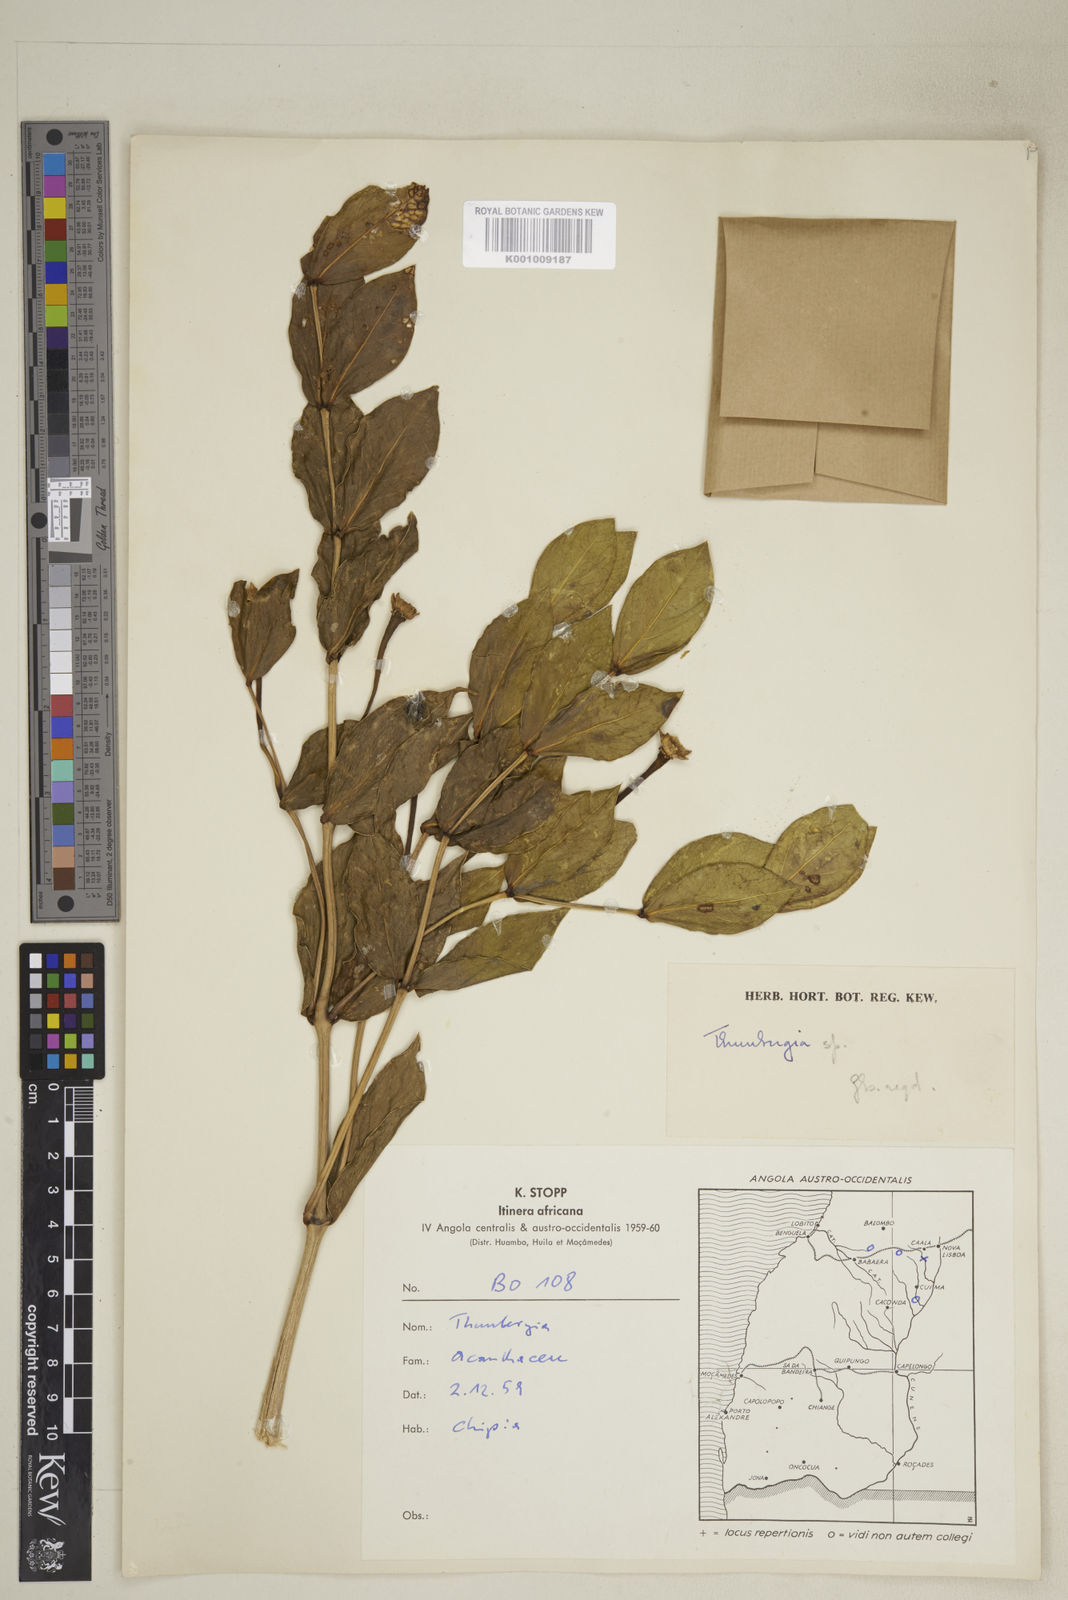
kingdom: Plantae
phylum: Tracheophyta
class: Magnoliopsida
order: Lamiales
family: Acanthaceae
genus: Thunbergia
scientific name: Thunbergia lancifolia
